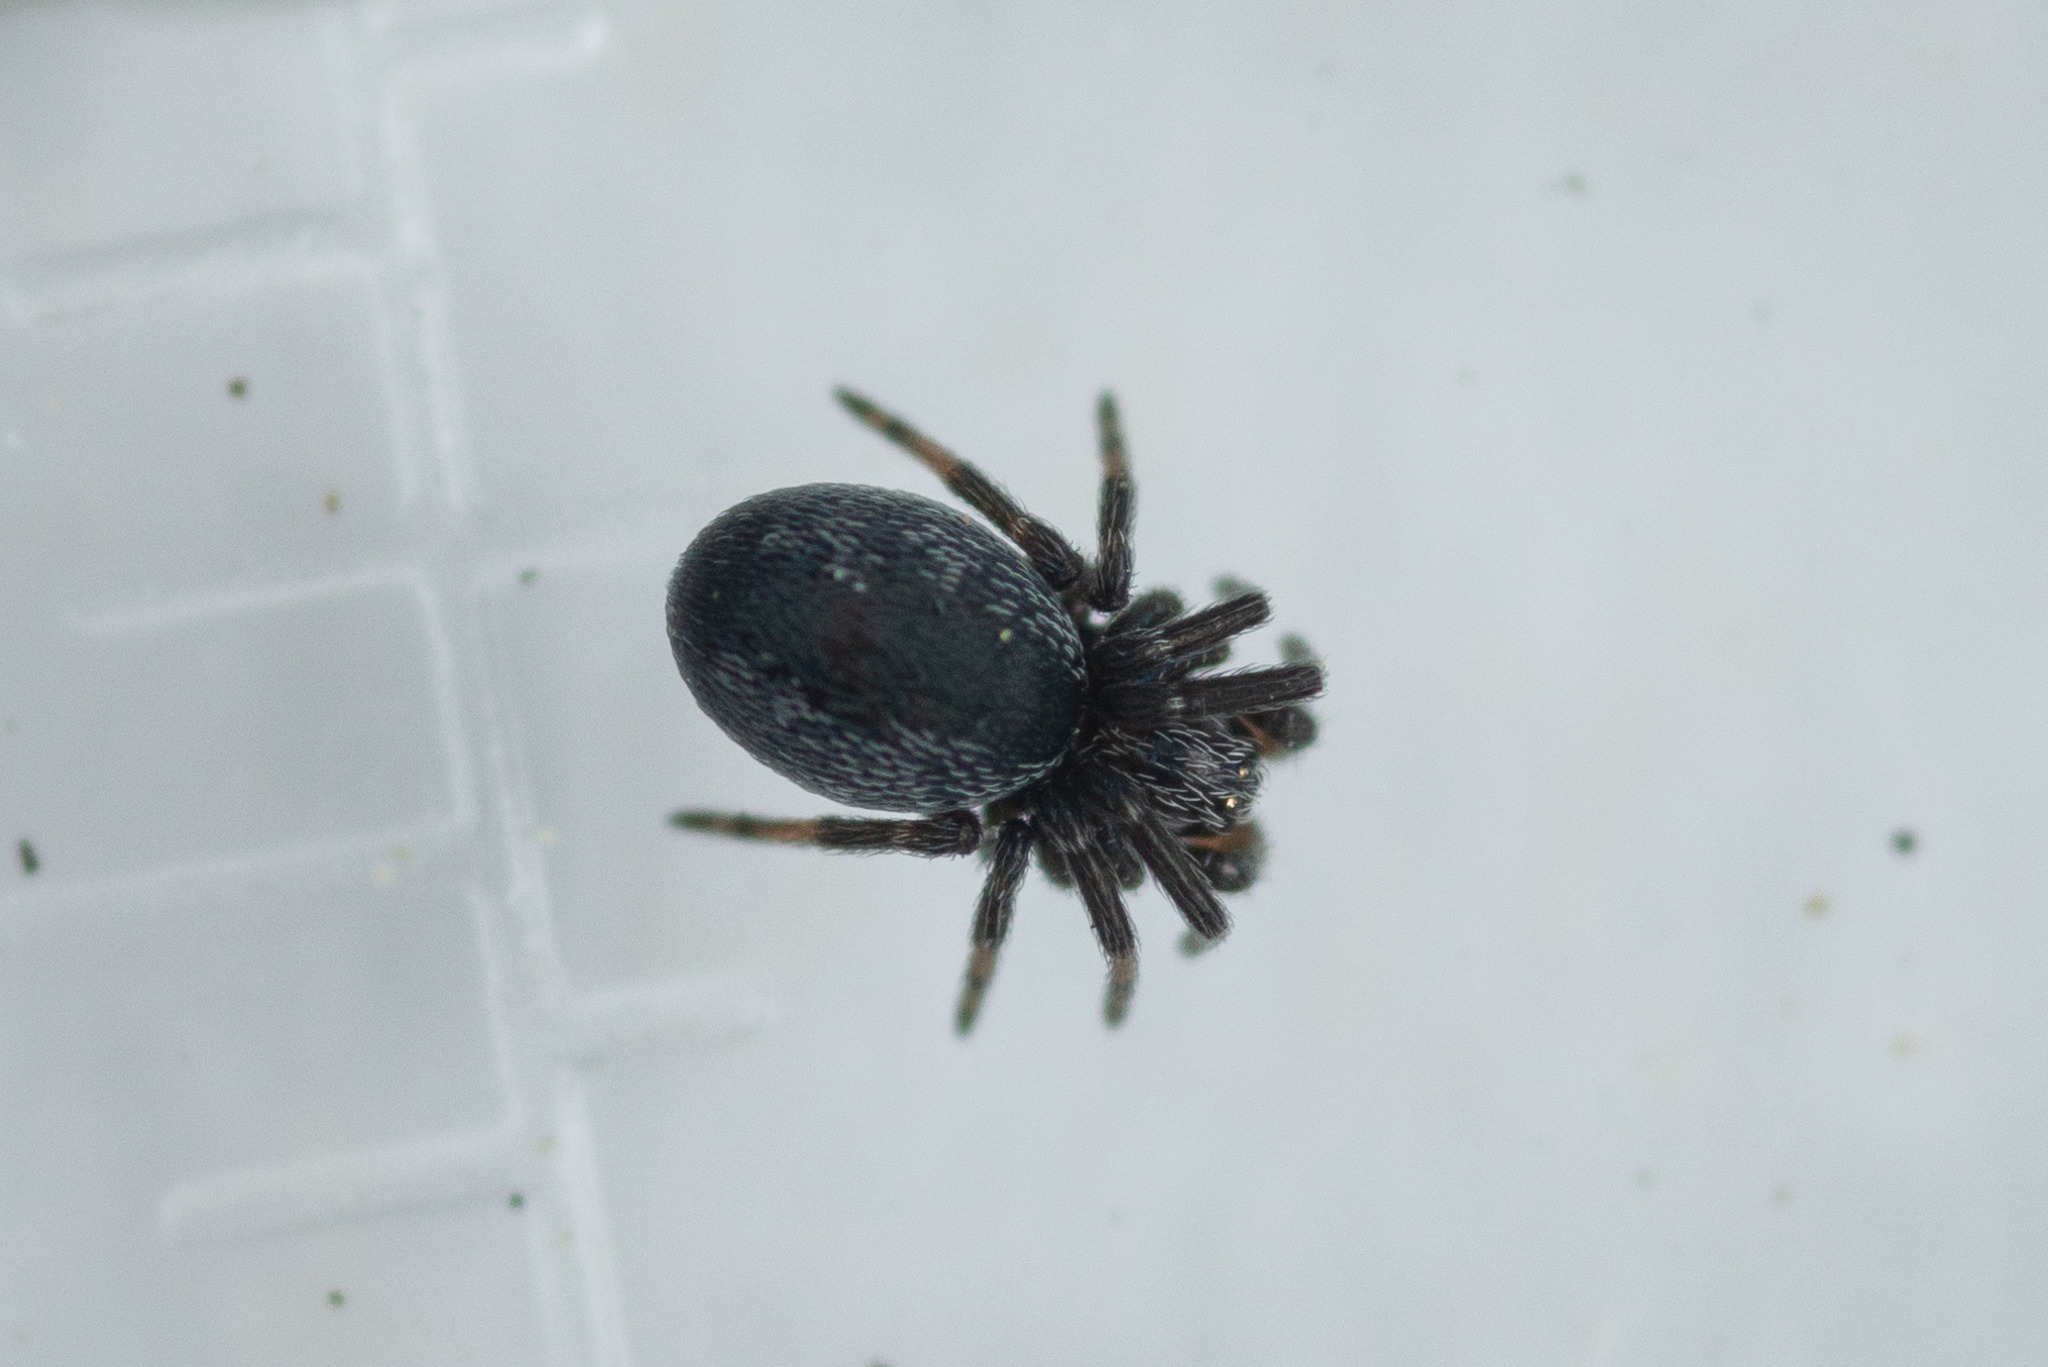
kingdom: Animalia
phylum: Arthropoda
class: Arachnida
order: Araneae
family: Dictynidae
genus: Brigittea
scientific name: Brigittea latens
